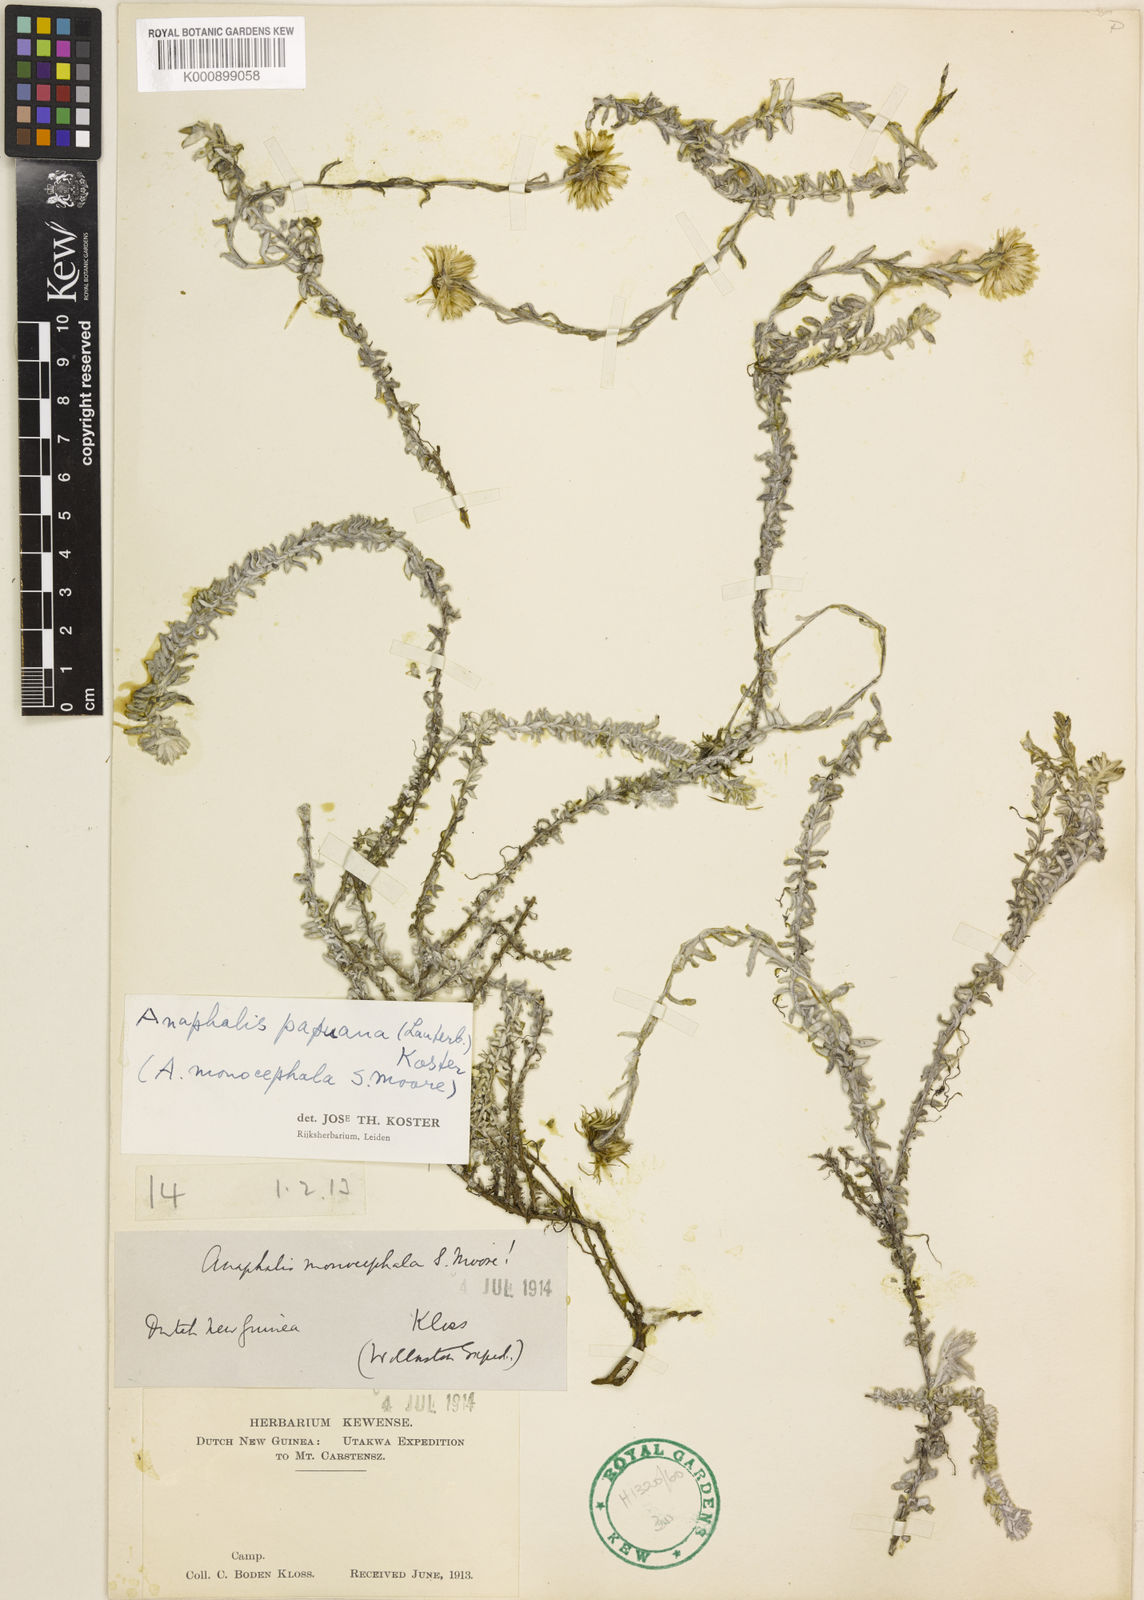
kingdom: Plantae
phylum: Tracheophyta
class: Magnoliopsida
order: Asterales
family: Asteraceae
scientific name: Asteraceae
